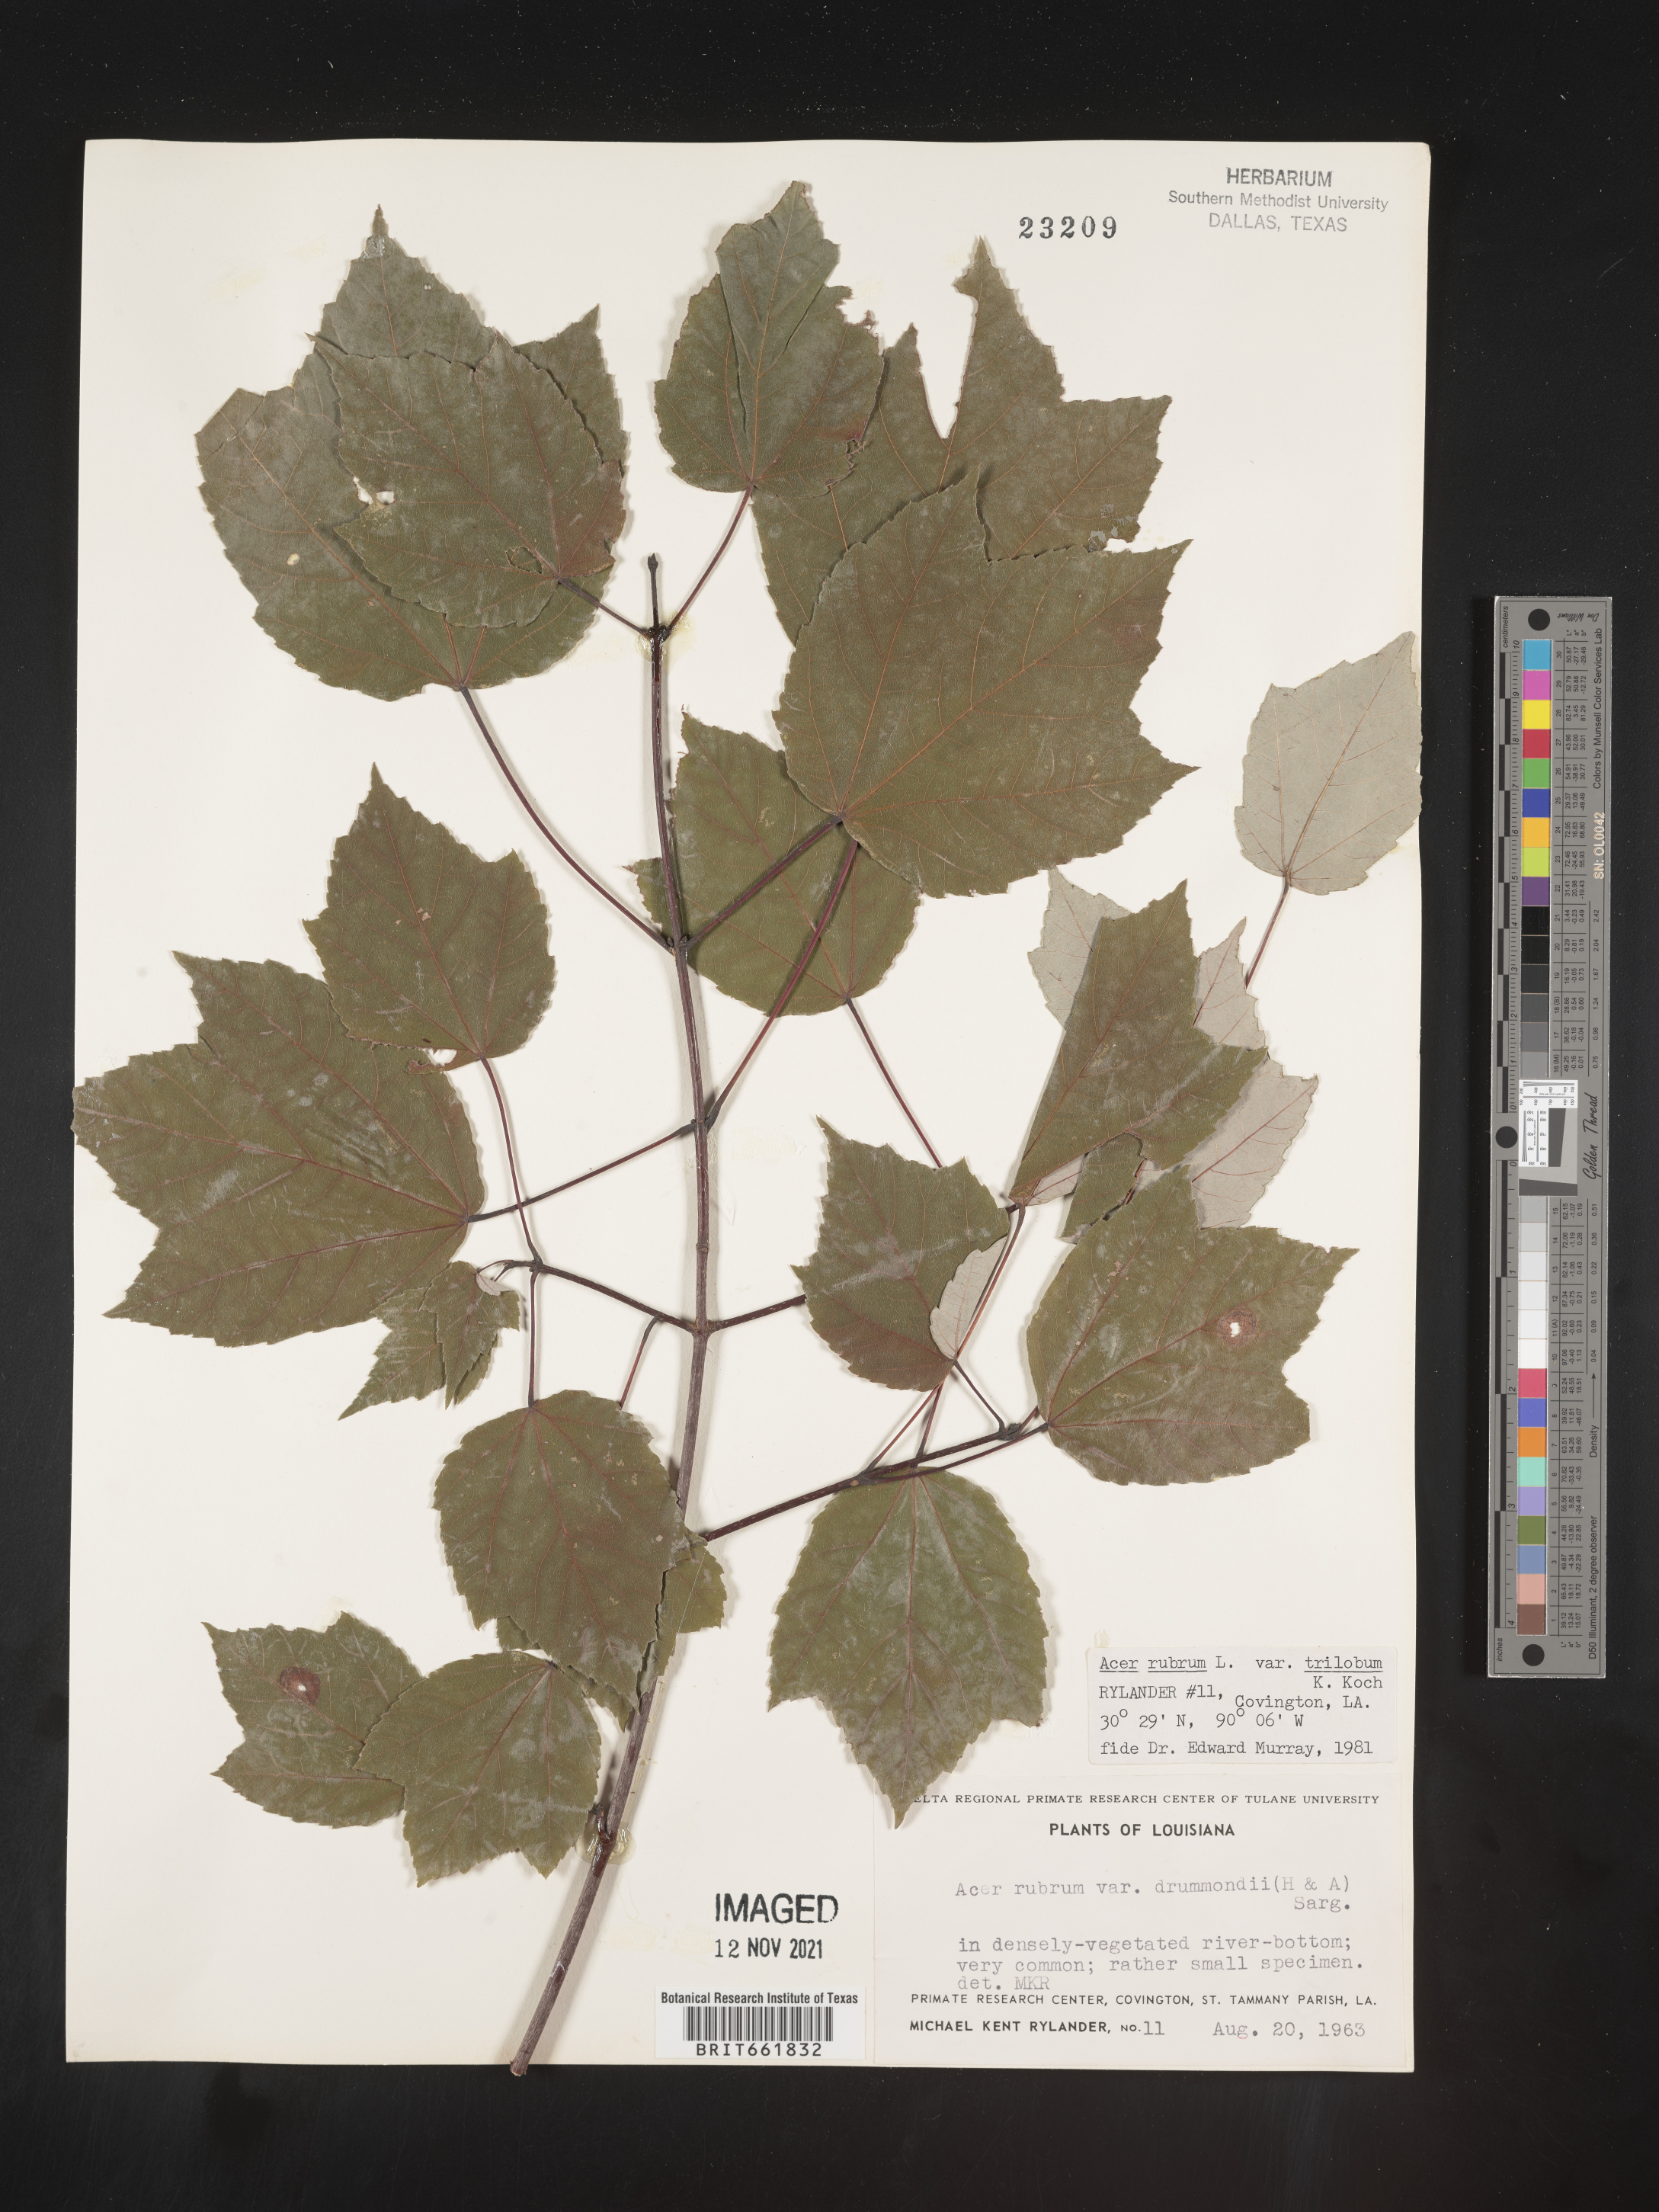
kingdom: Plantae
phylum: Tracheophyta
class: Magnoliopsida
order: Sapindales
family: Sapindaceae
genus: Acer
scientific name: Acer rubrum
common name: Red maple
